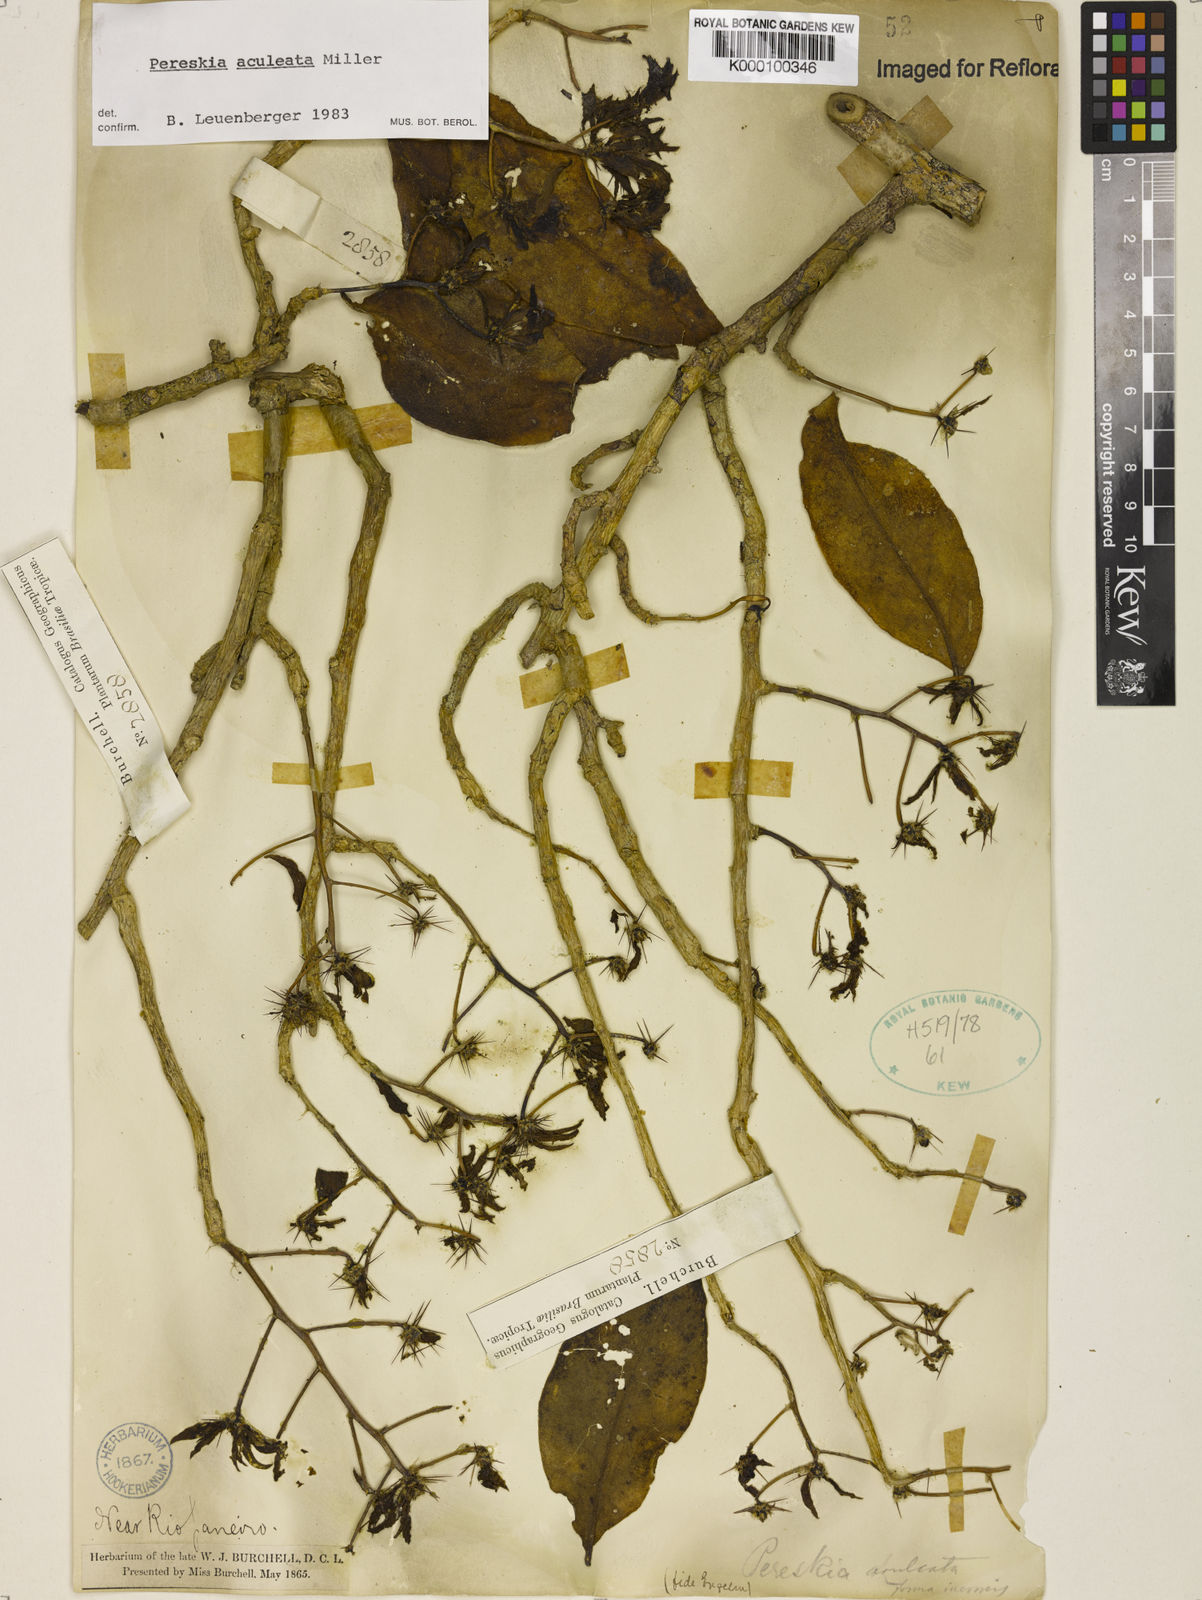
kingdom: Plantae
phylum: Tracheophyta
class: Magnoliopsida
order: Caryophyllales
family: Cactaceae
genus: Pereskia
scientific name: Pereskia aculeata
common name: Barbados gooseberry
